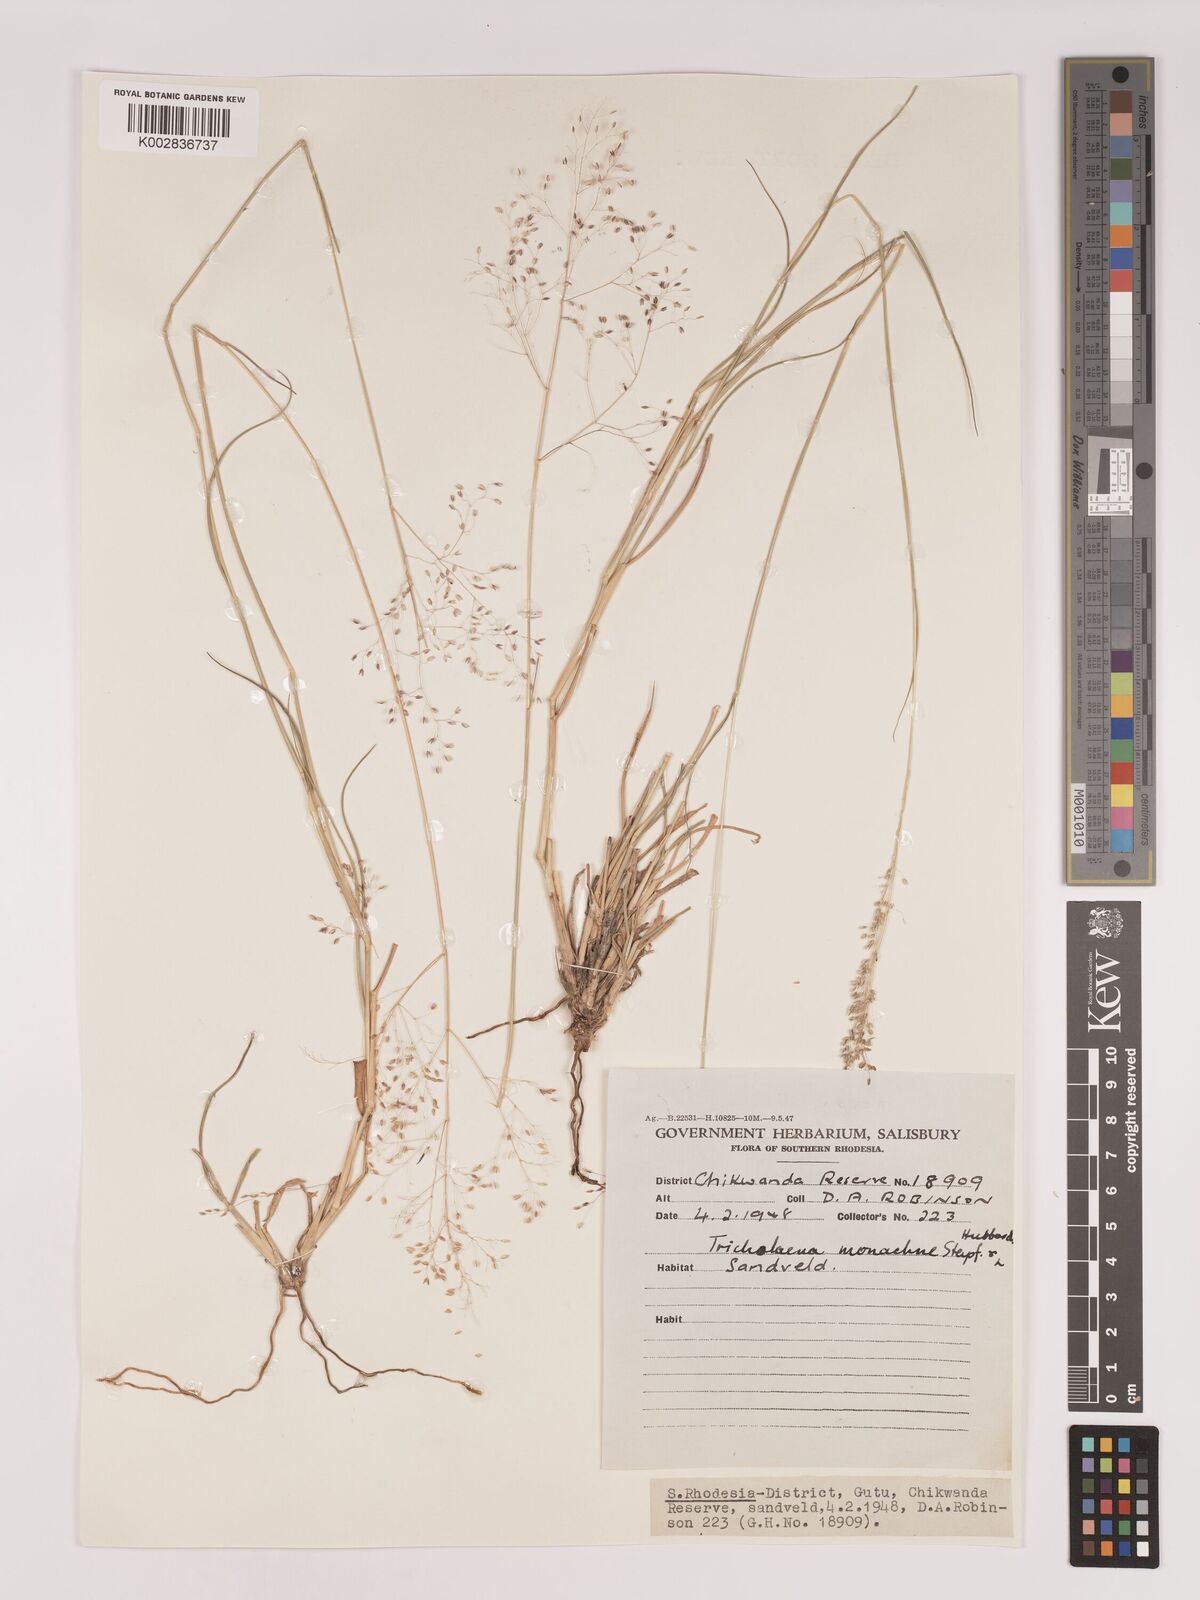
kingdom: Plantae
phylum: Tracheophyta
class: Liliopsida
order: Poales
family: Poaceae
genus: Tricholaena
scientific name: Tricholaena monachne
